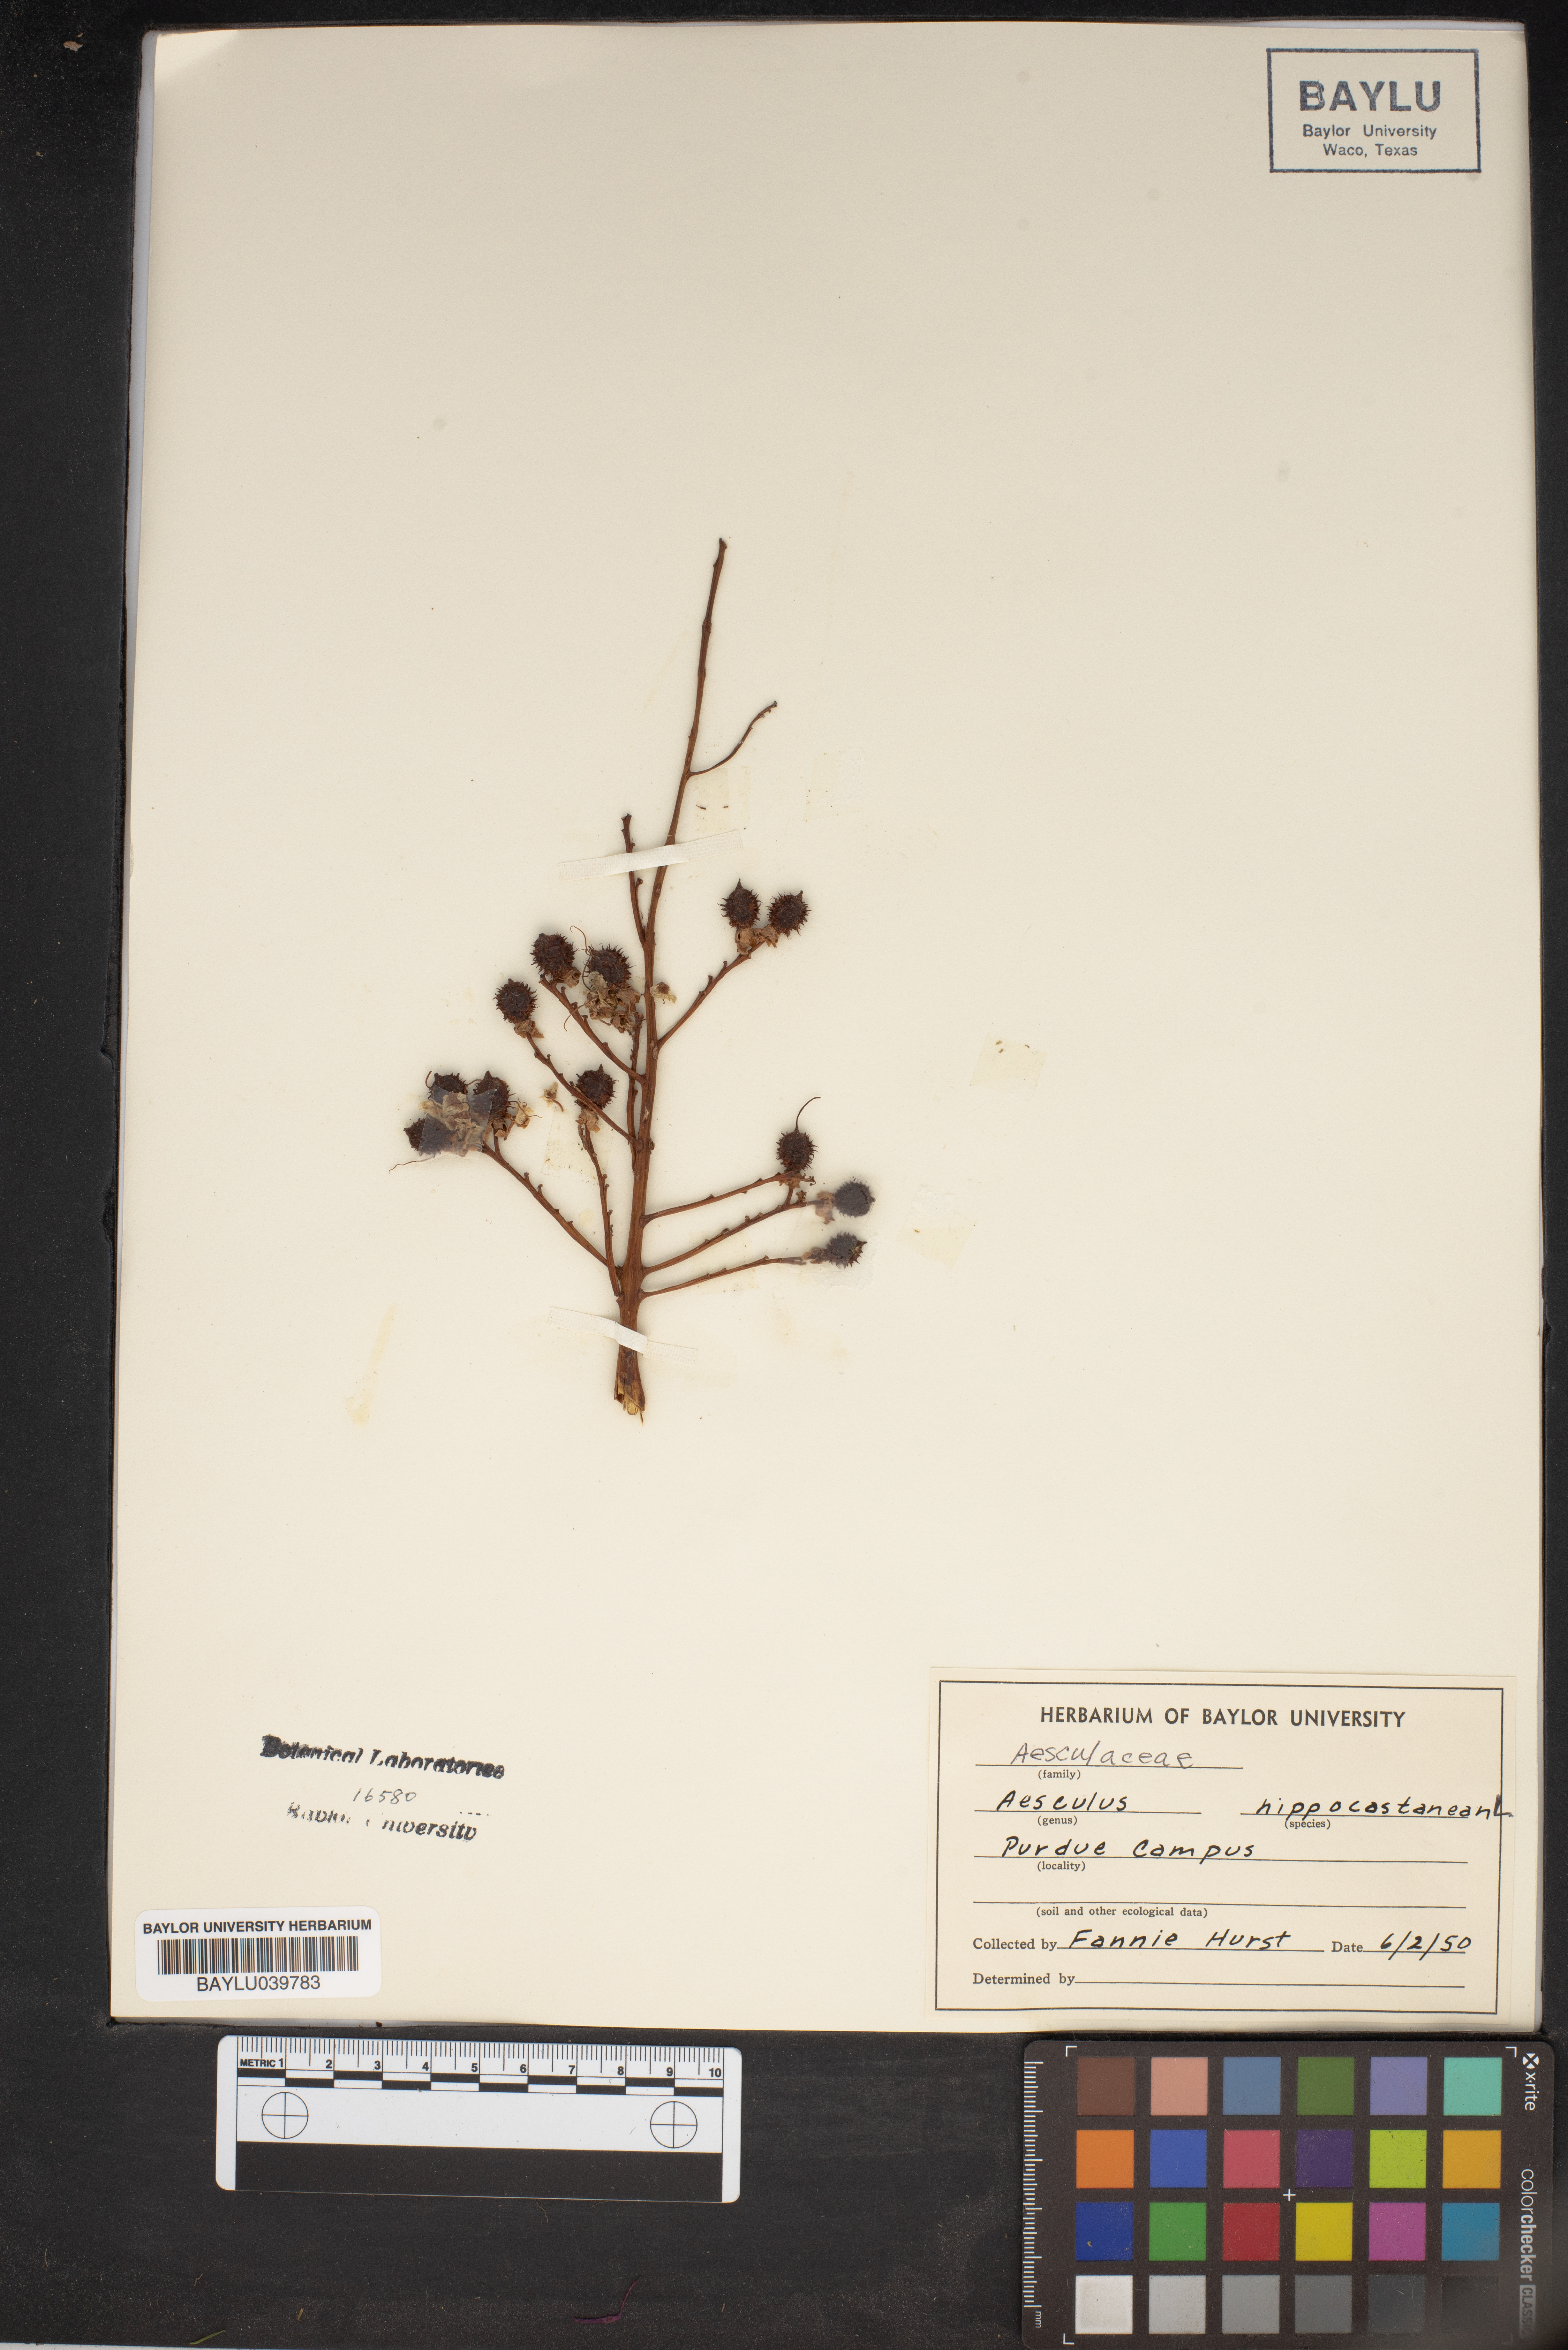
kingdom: Plantae
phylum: Tracheophyta
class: Magnoliopsida
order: Sapindales
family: Sapindaceae
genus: Aesculus
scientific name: Aesculus hippocastanum
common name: Horse-chestnut
